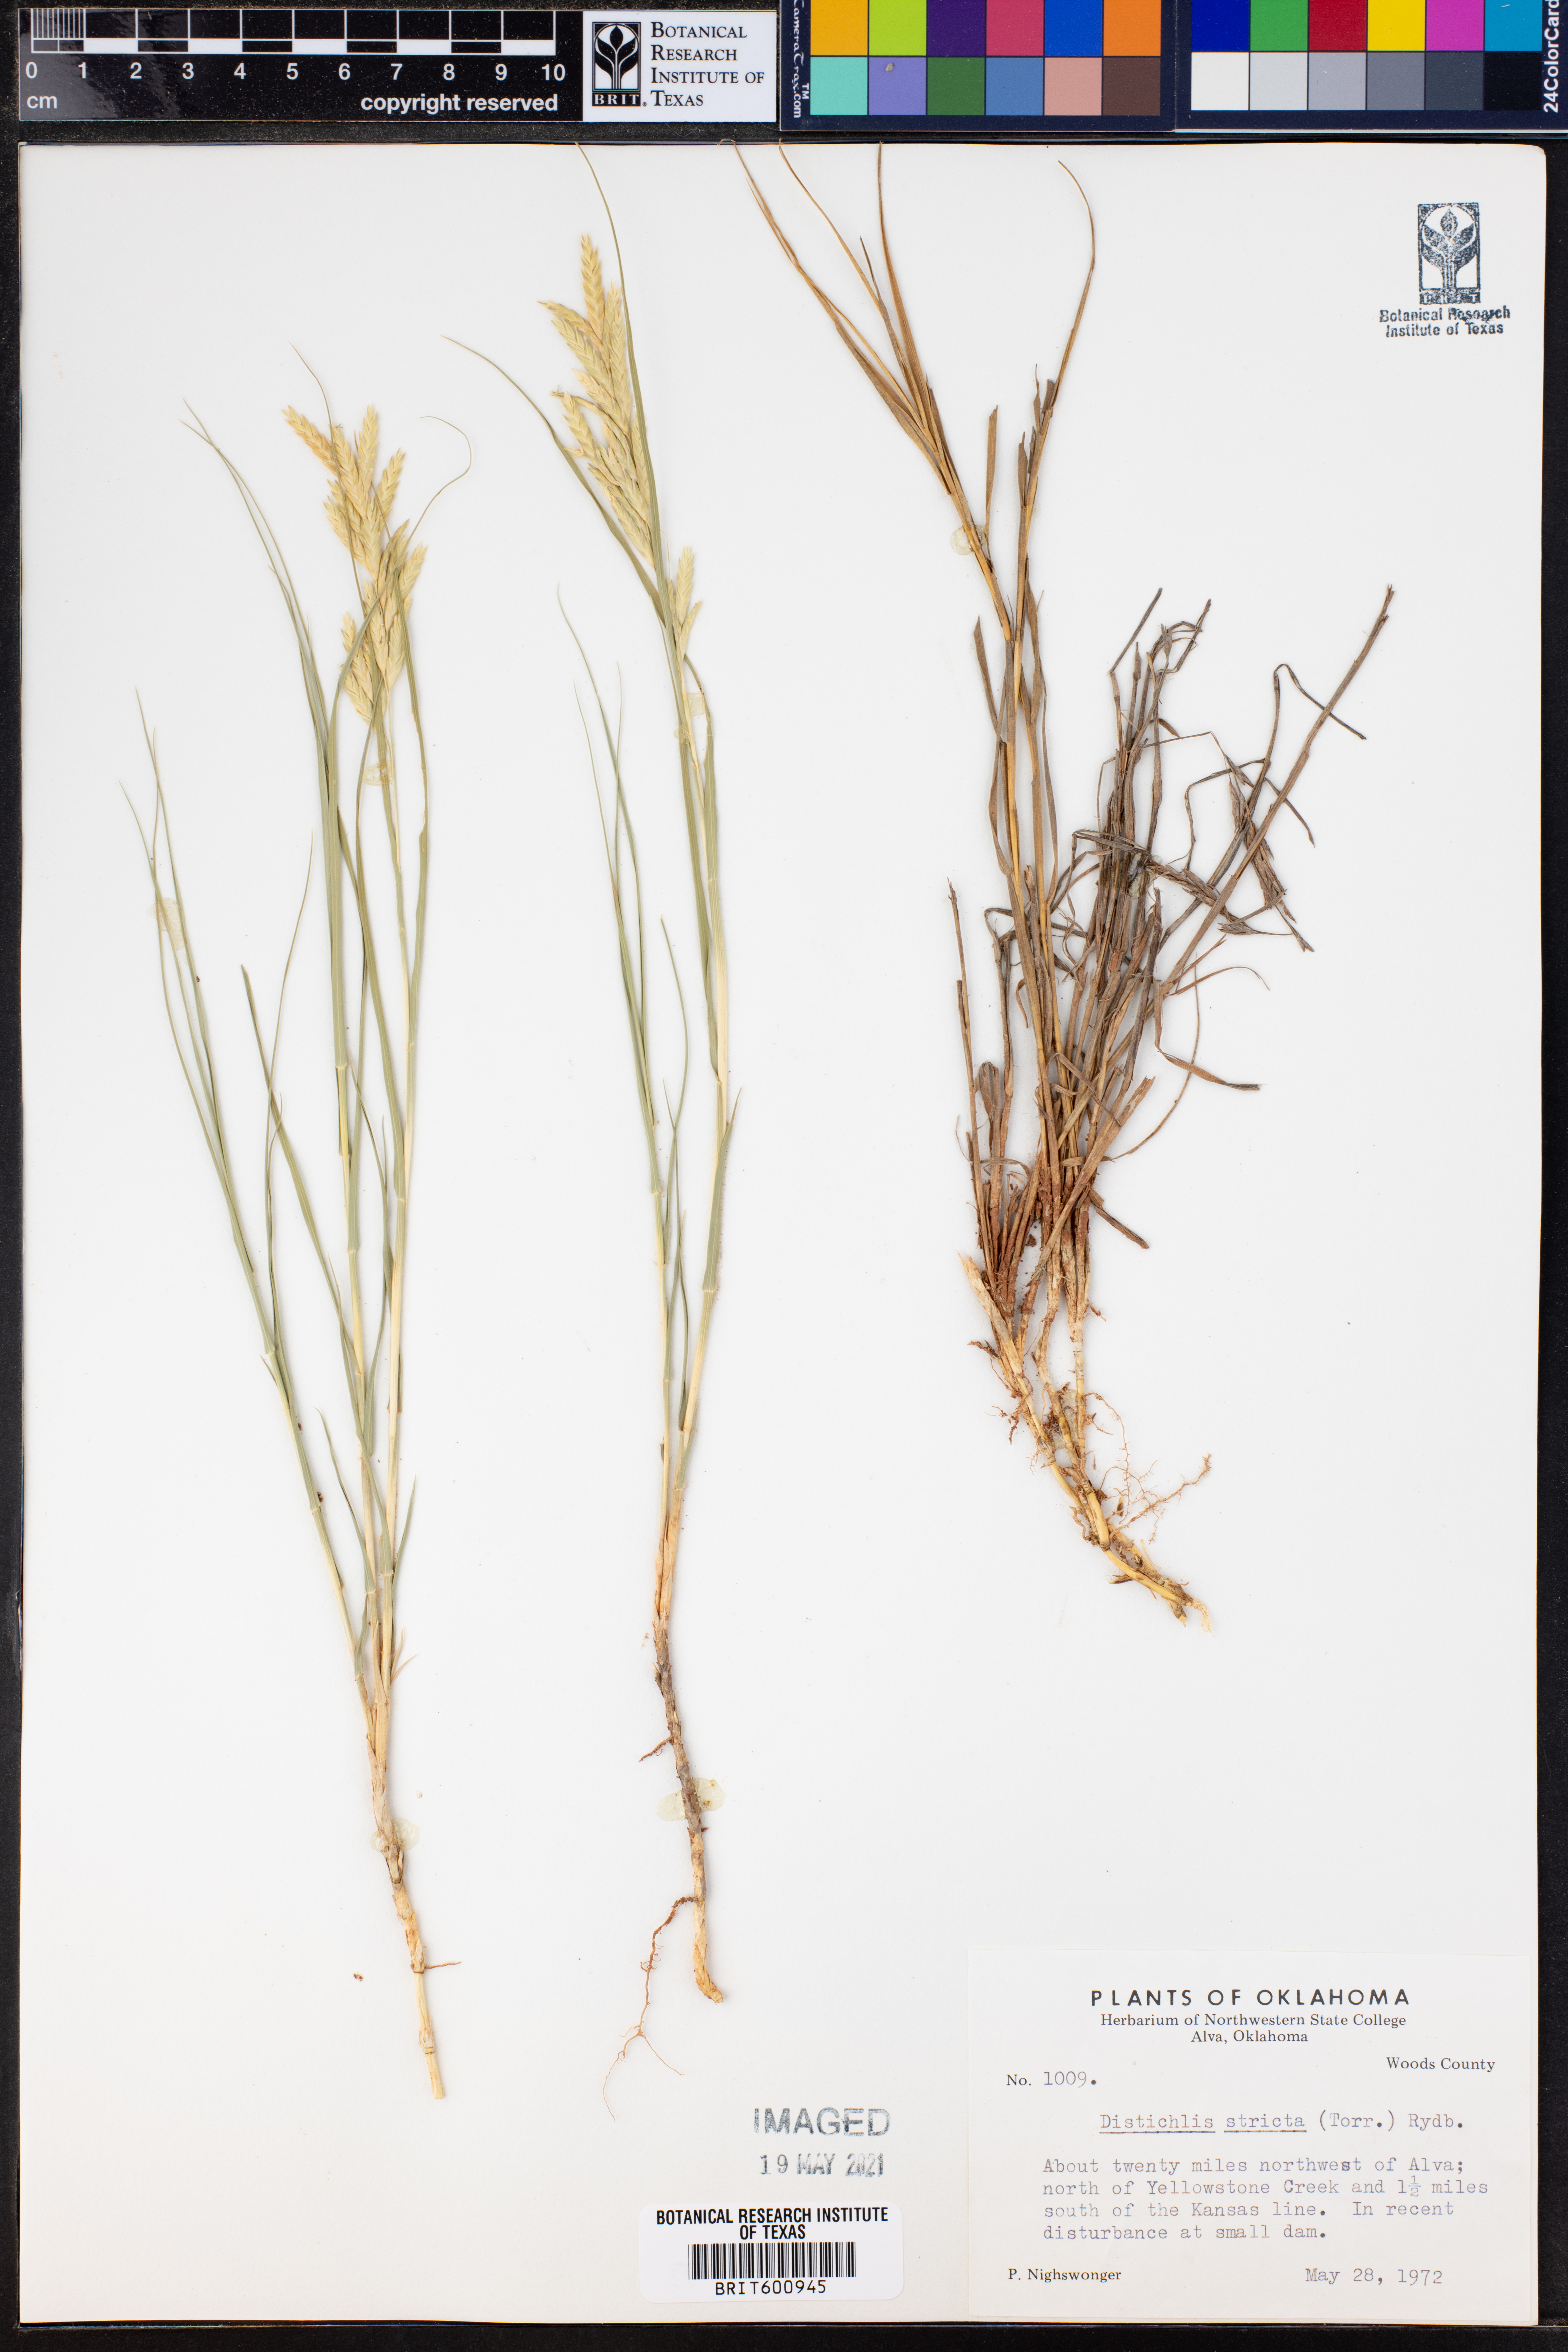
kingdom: Plantae
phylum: Tracheophyta
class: Liliopsida
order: Poales
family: Poaceae
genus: Distichlis
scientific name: Distichlis spicata
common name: Saltgrass
